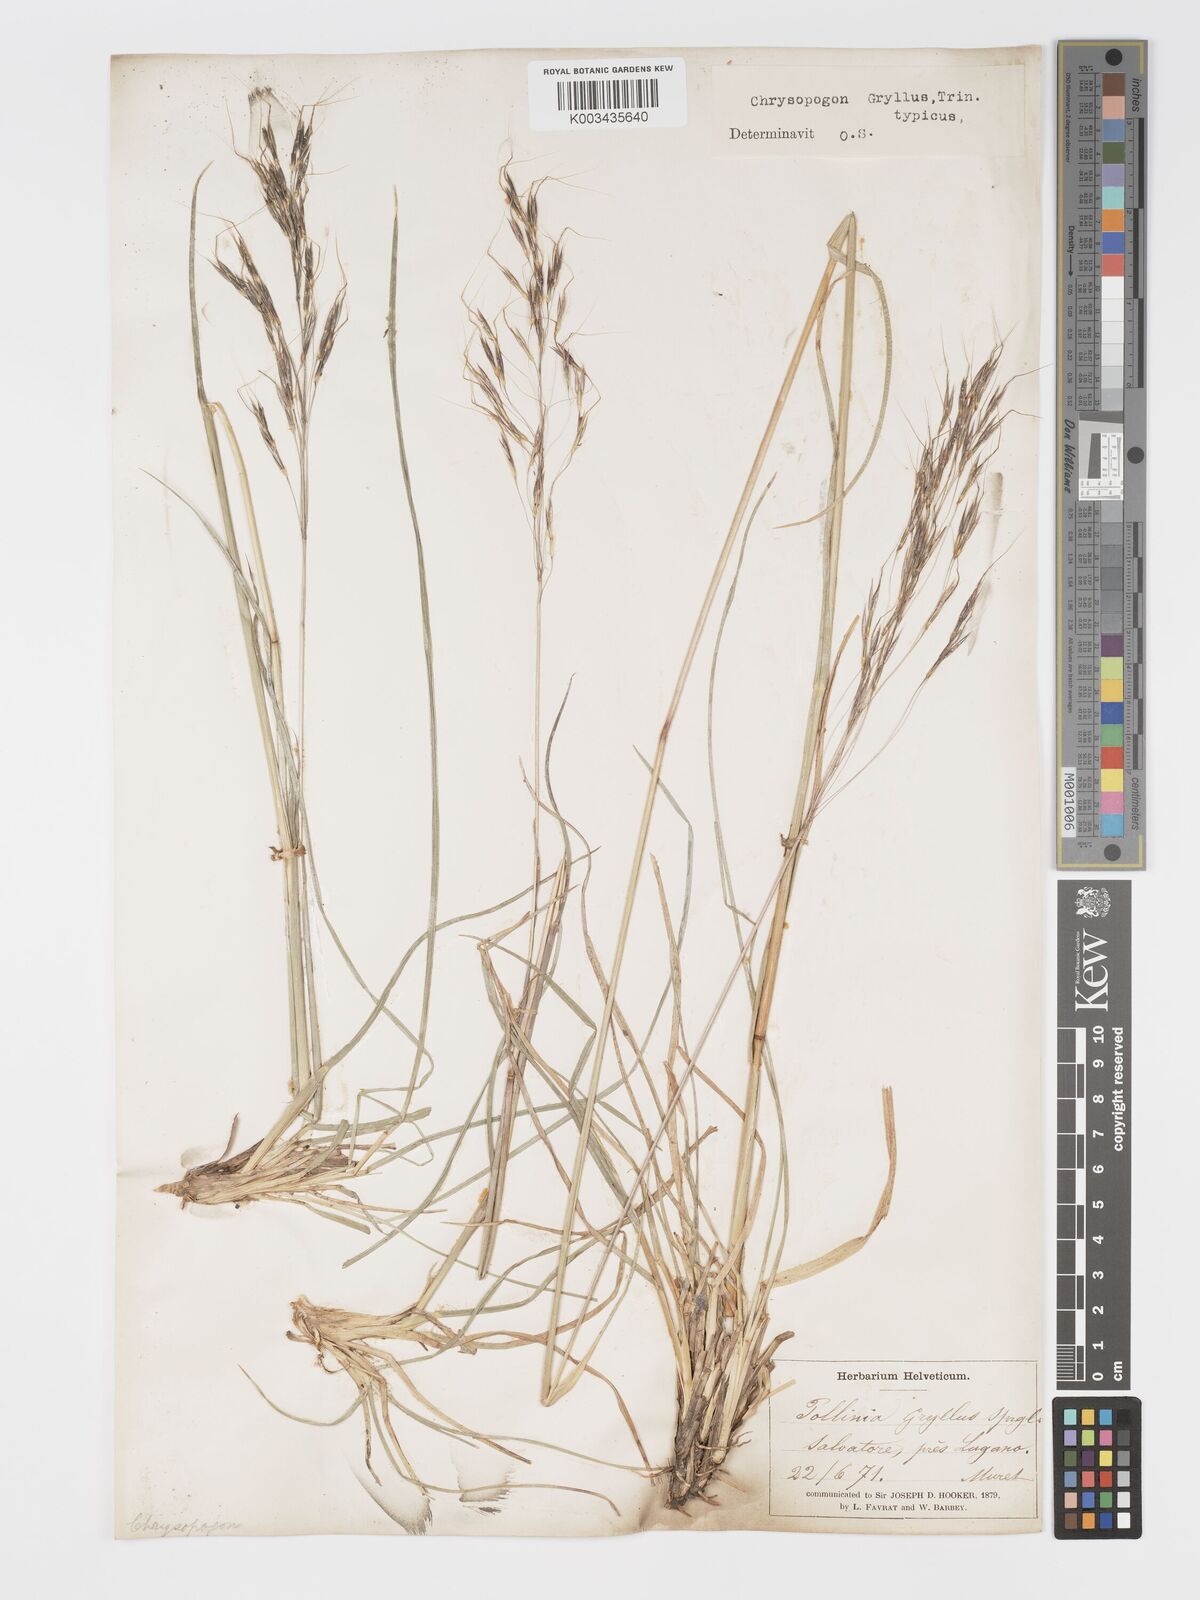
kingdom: Plantae
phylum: Tracheophyta
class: Liliopsida
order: Poales
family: Poaceae
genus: Chrysopogon
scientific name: Chrysopogon gryllus
